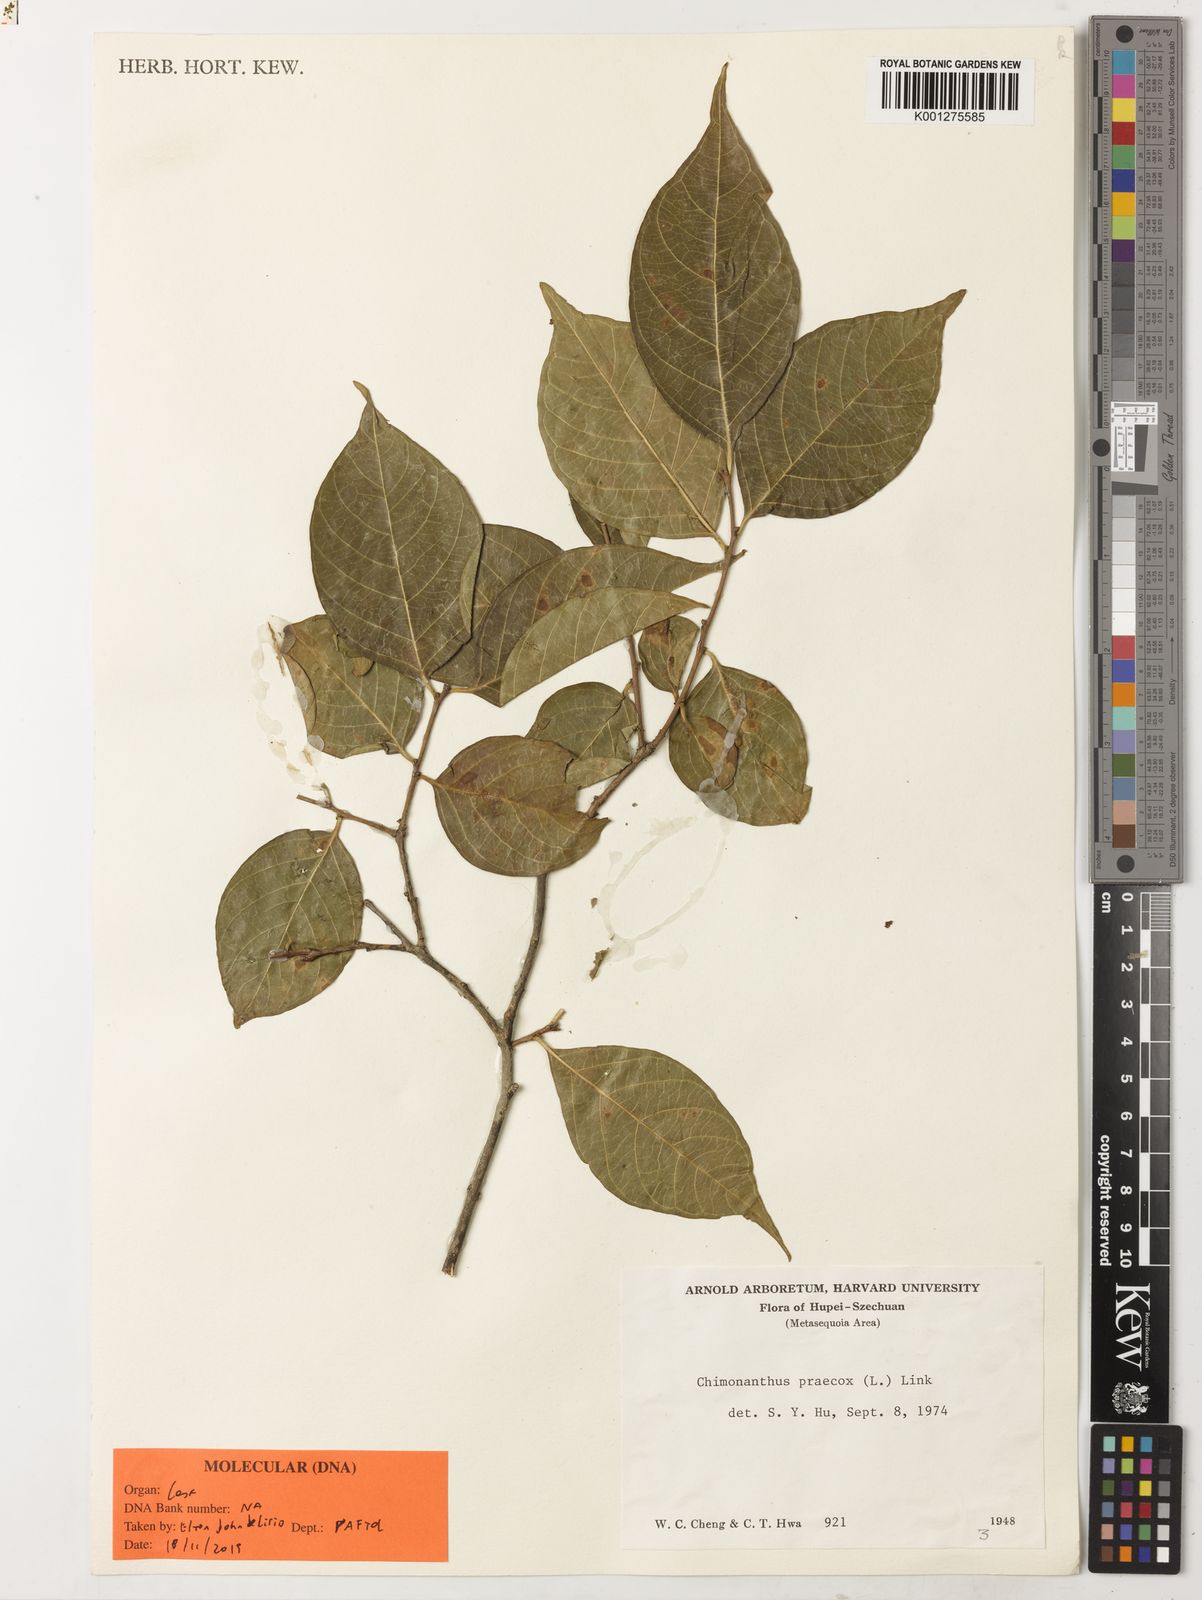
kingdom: Plantae
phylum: Tracheophyta
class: Magnoliopsida
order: Laurales
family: Calycanthaceae
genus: Chimonanthus
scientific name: Chimonanthus praecox
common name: Wintersweet
